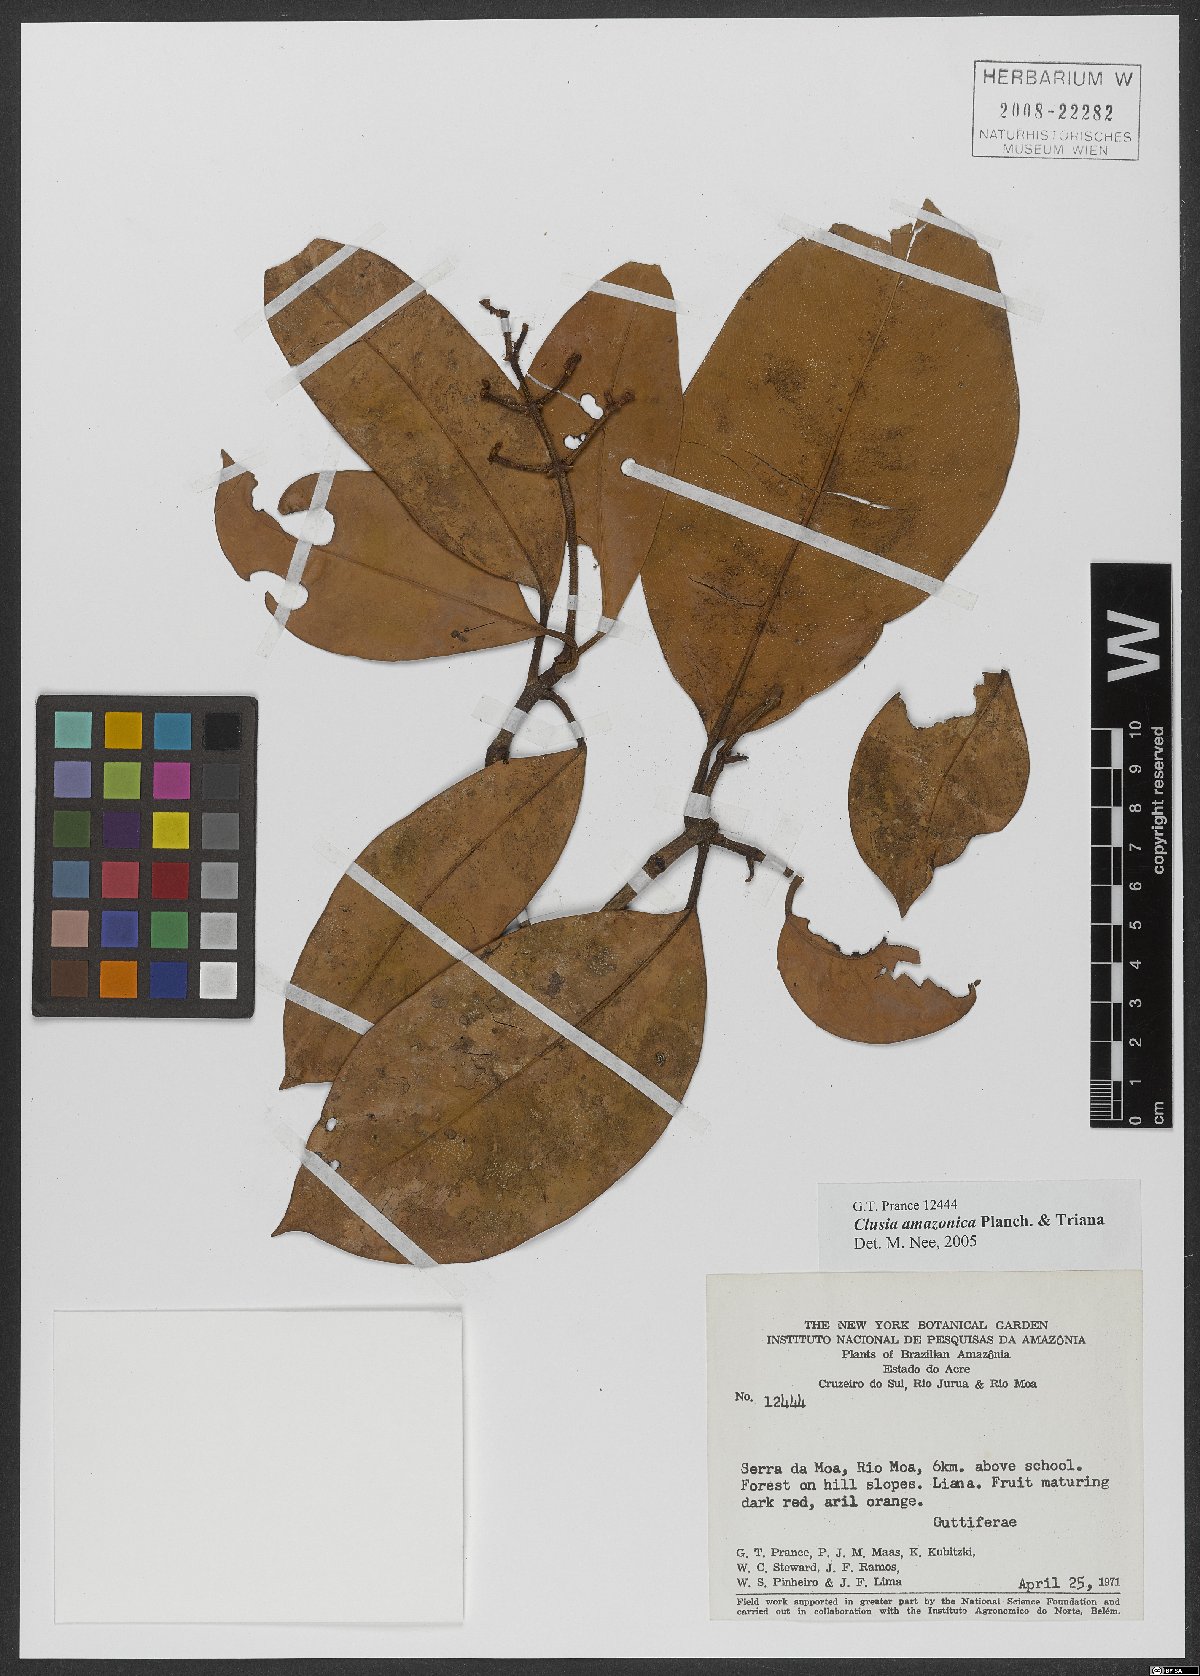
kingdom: Plantae
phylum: Tracheophyta
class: Magnoliopsida
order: Malpighiales
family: Clusiaceae
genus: Clusia
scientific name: Clusia amazonica
